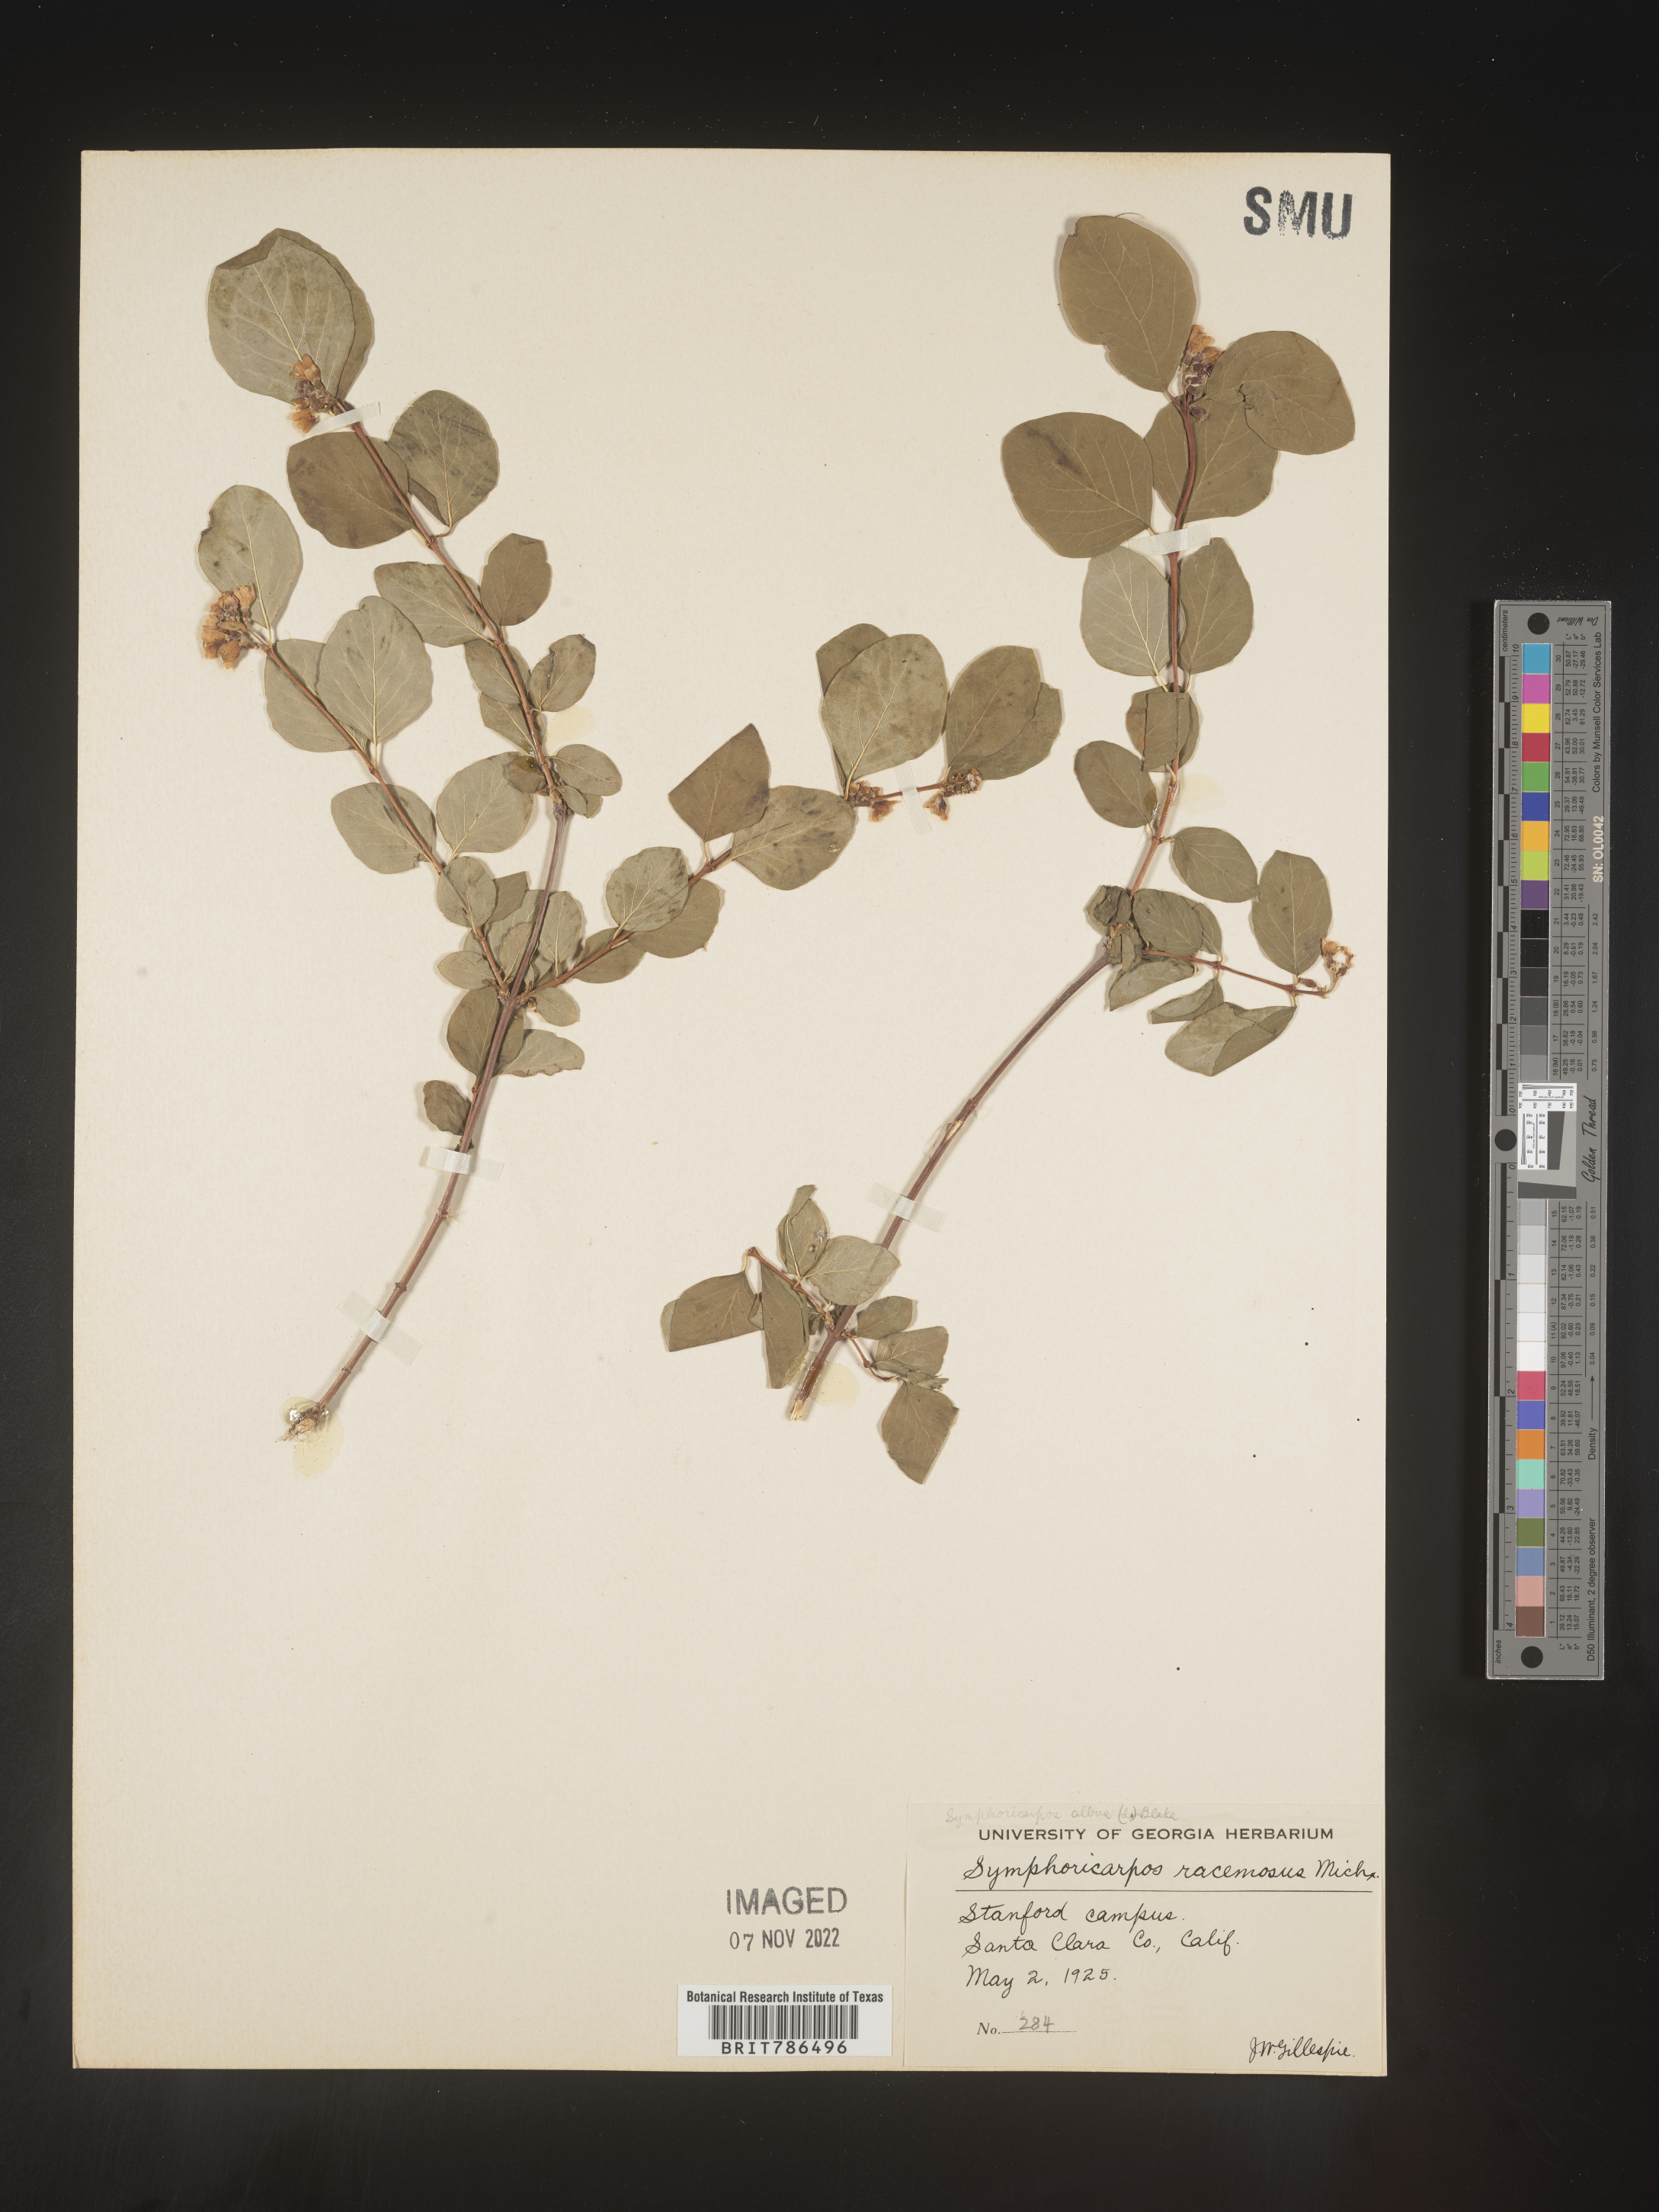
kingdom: Plantae
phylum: Tracheophyta
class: Magnoliopsida
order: Dipsacales
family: Caprifoliaceae
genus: Symphoricarpos
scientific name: Symphoricarpos
